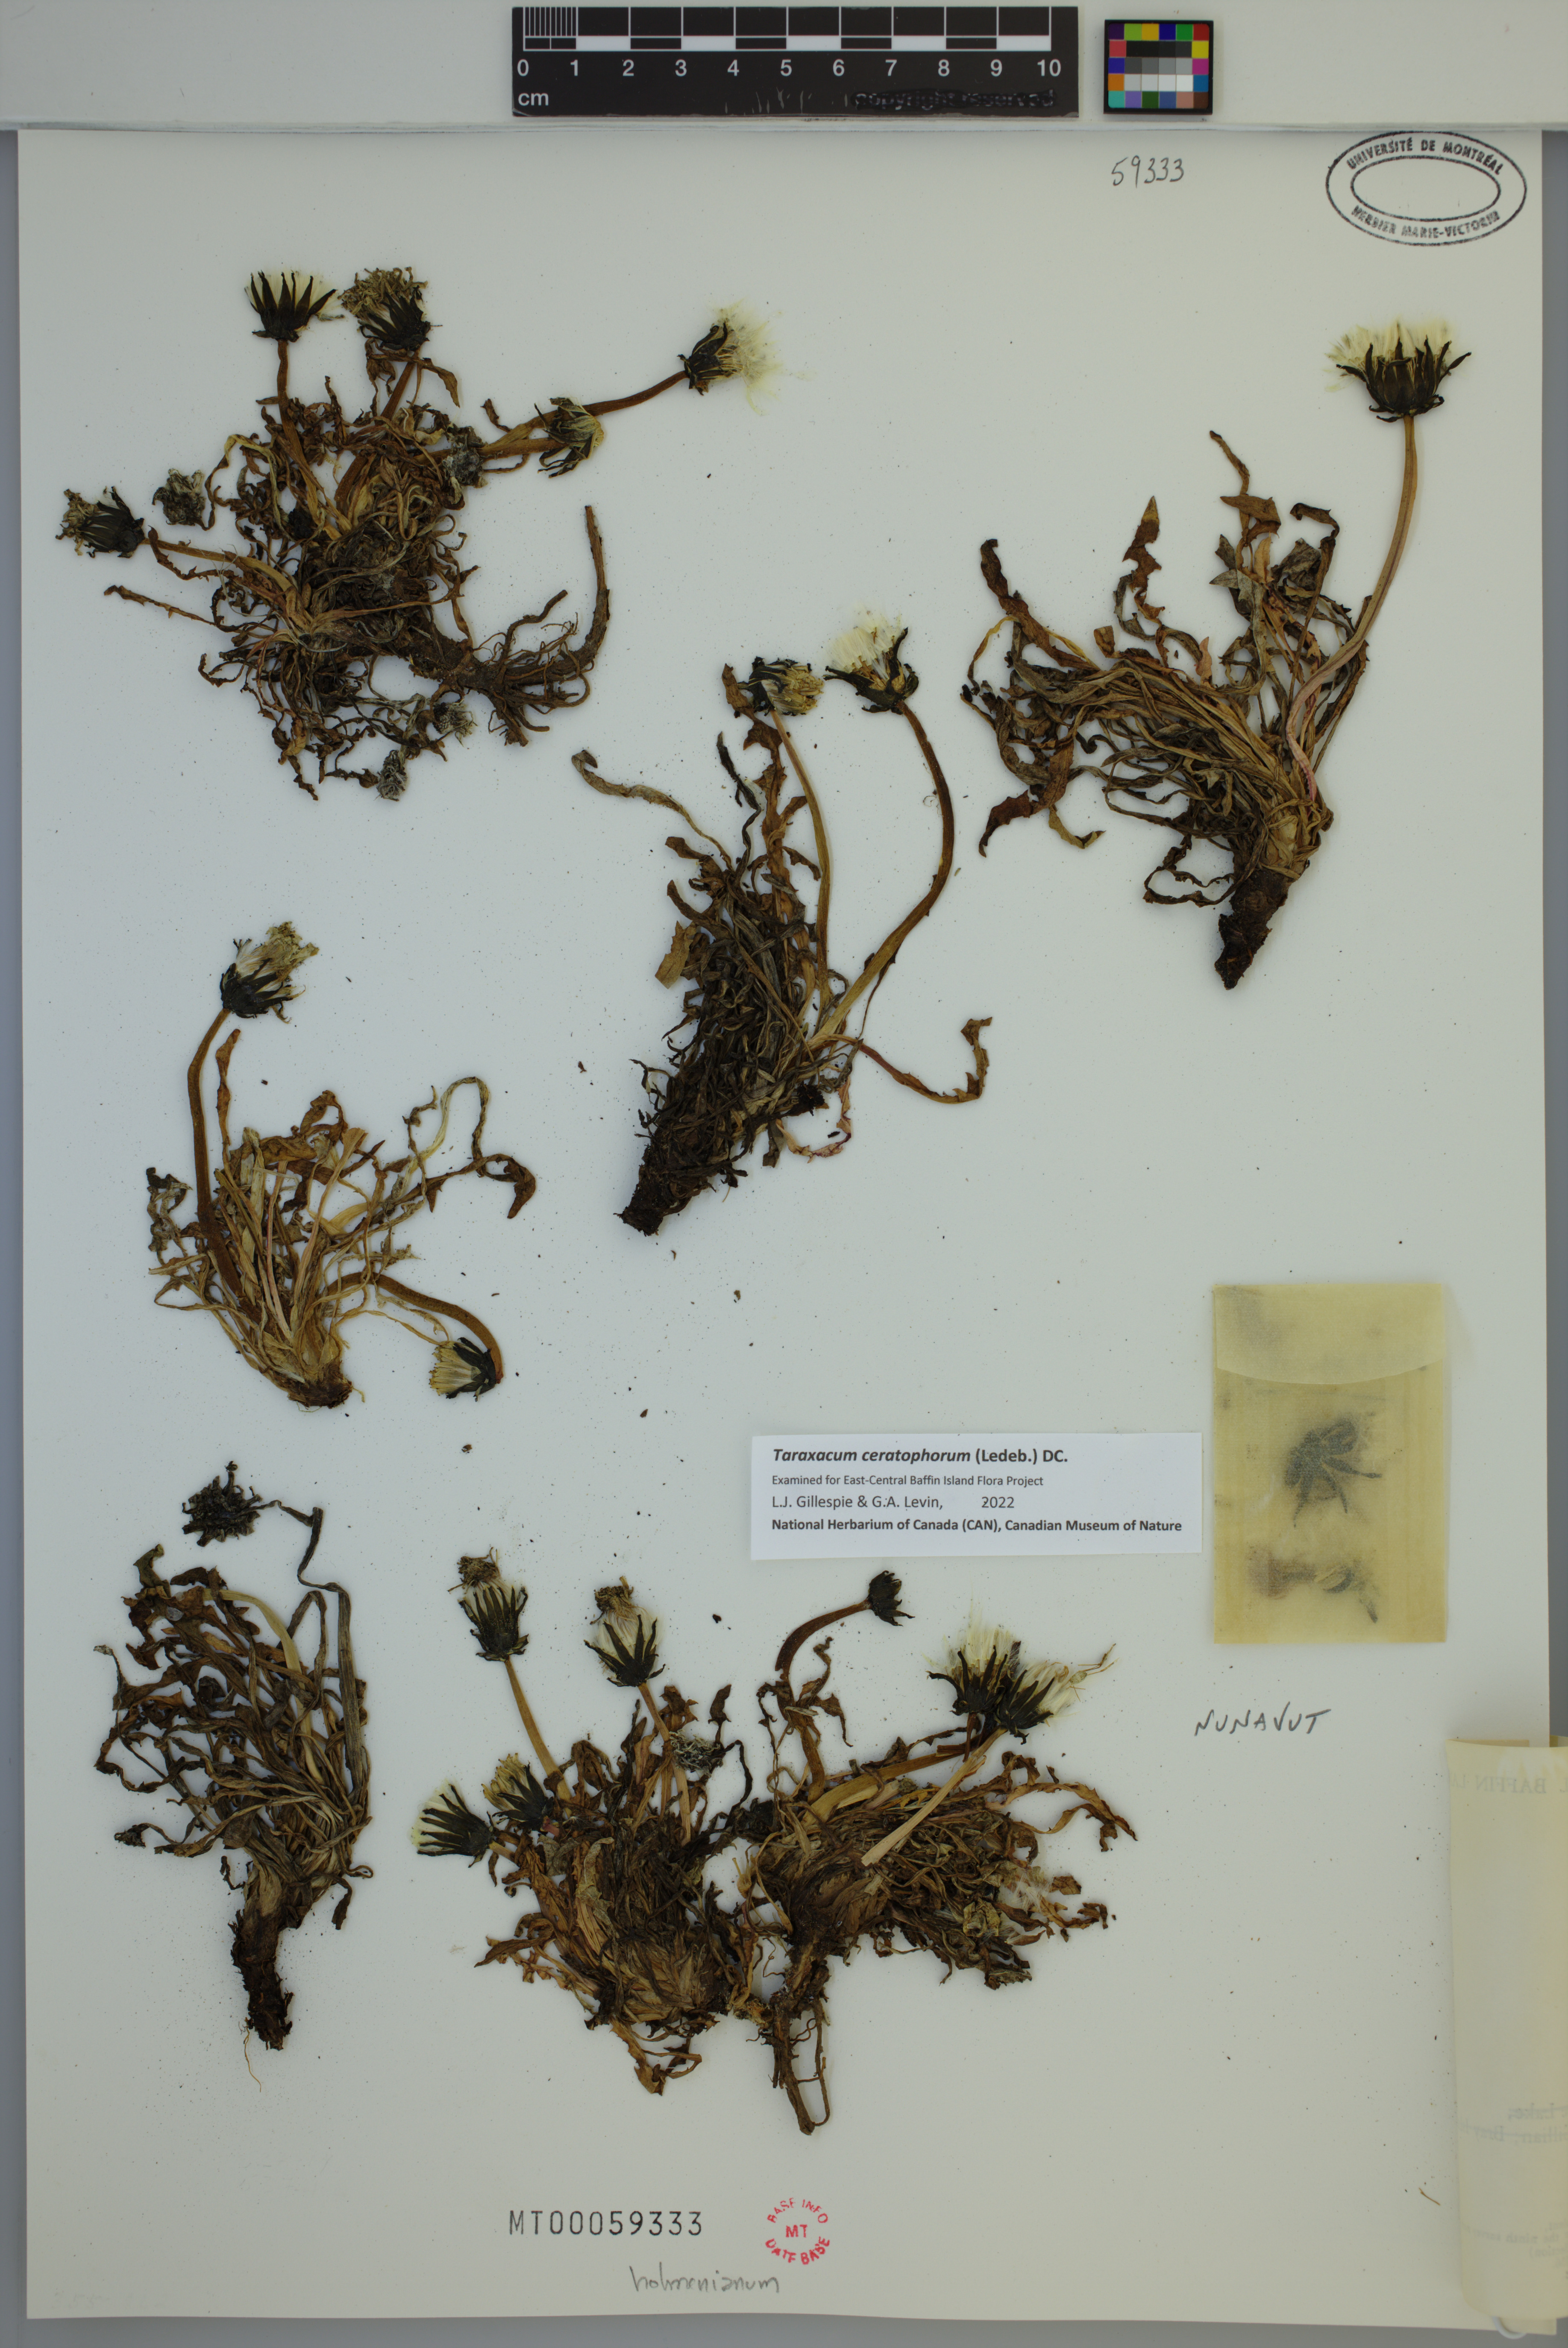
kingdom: Plantae
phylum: Tracheophyta
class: Magnoliopsida
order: Asterales
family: Asteraceae
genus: Taraxacum
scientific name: Taraxacum ceratophorum
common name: Horn-bearing dandelion
